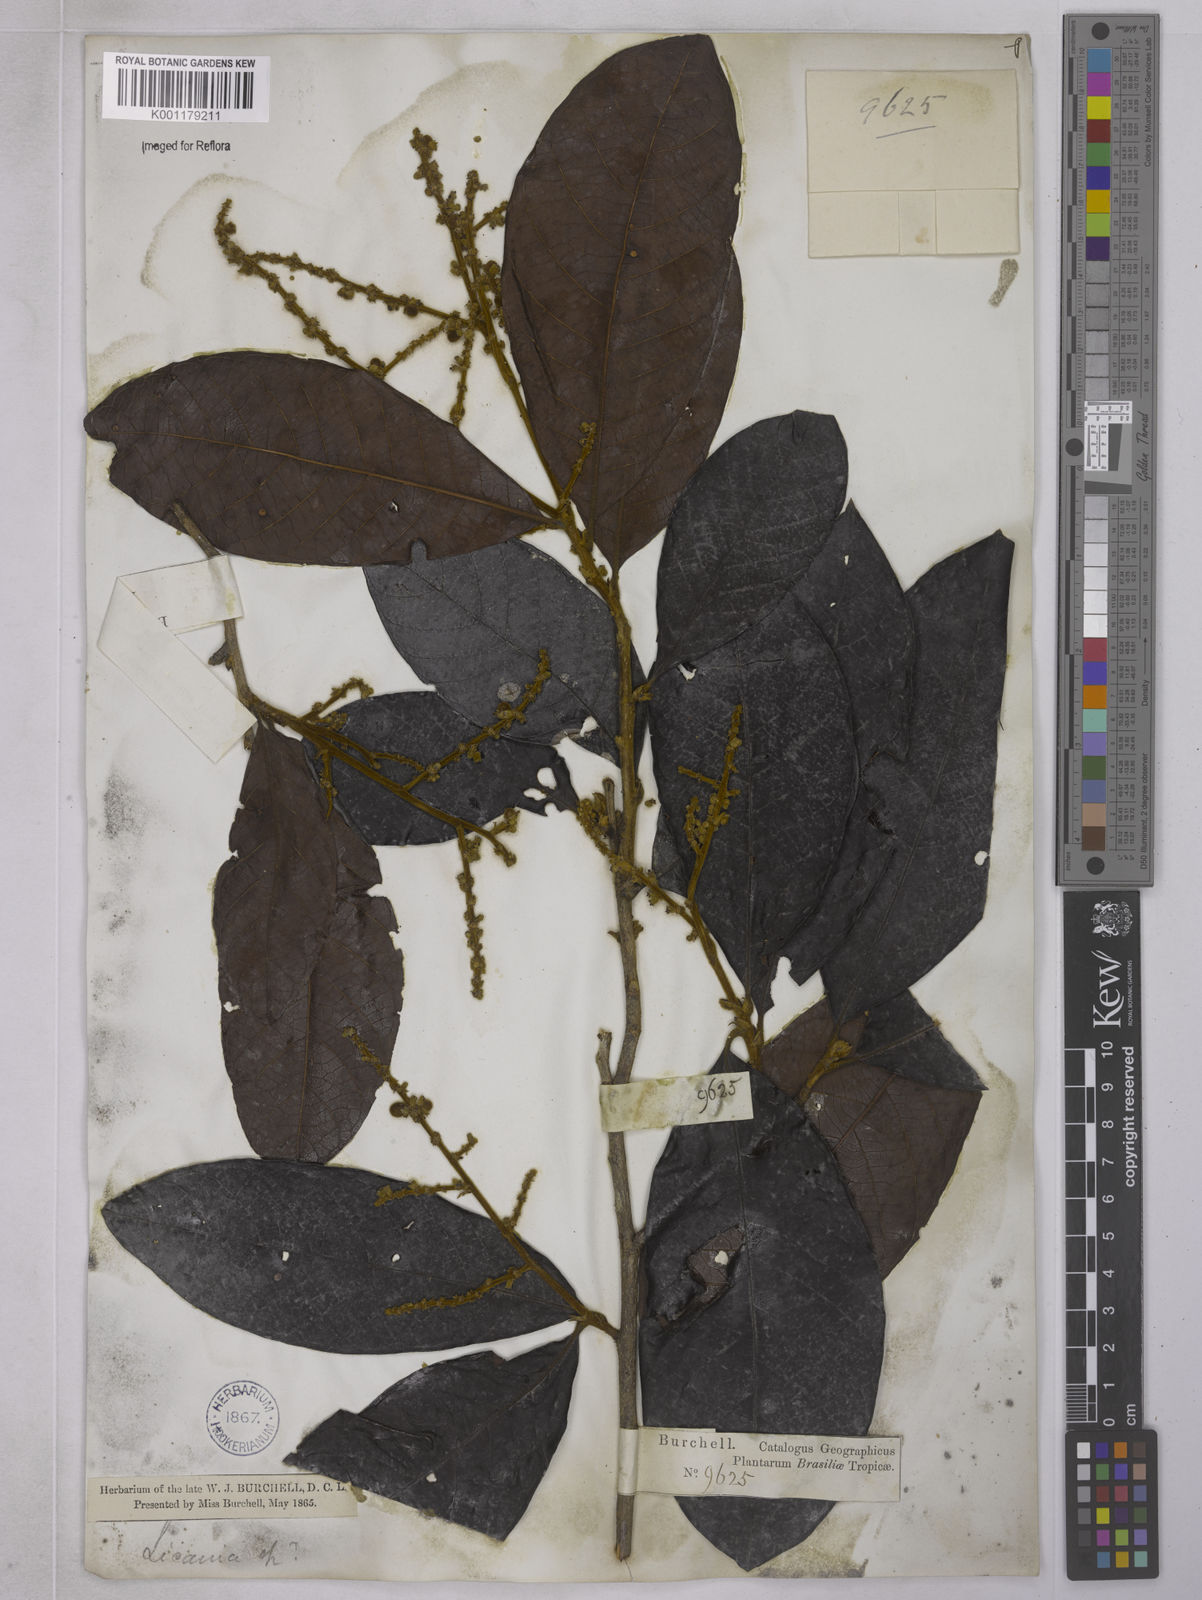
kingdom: Plantae
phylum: Tracheophyta
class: Magnoliopsida
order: Malpighiales
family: Chrysobalanaceae
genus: Hymenopus
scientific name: Hymenopus latifolius
